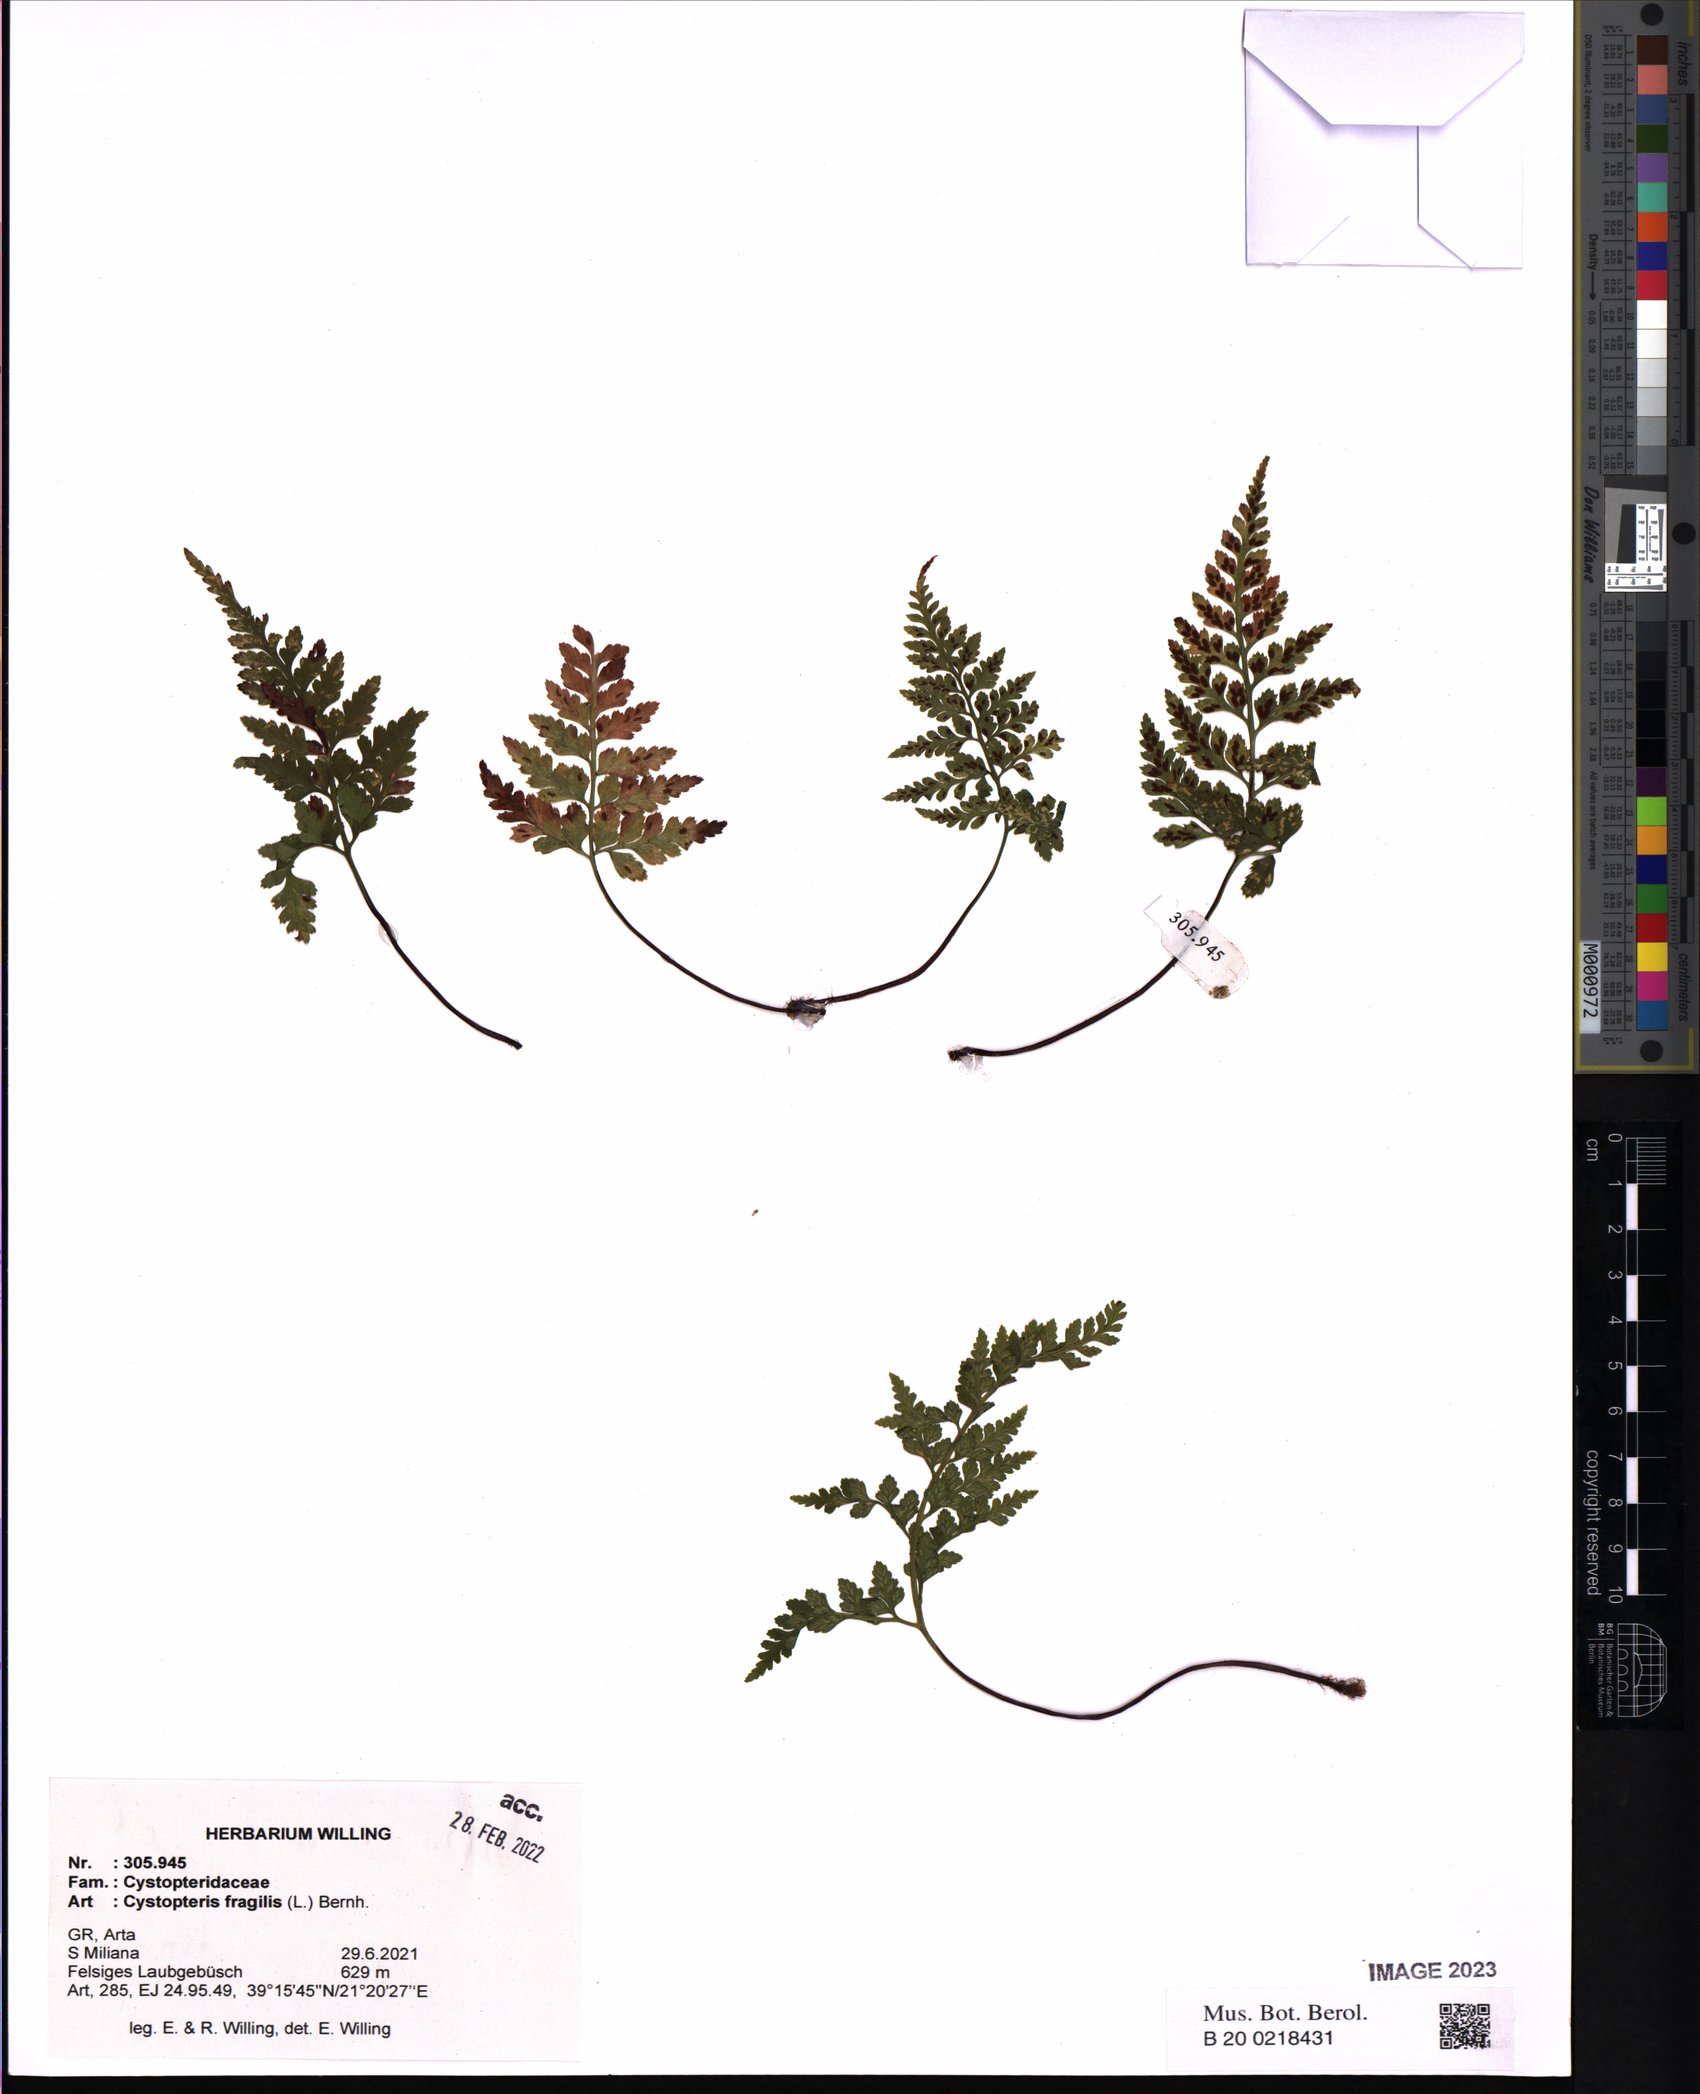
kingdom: Plantae
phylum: Tracheophyta
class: Polypodiopsida
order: Polypodiales
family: Cystopteridaceae
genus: Cystopteris
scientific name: Cystopteris fragilis
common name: Brittle bladder fern
